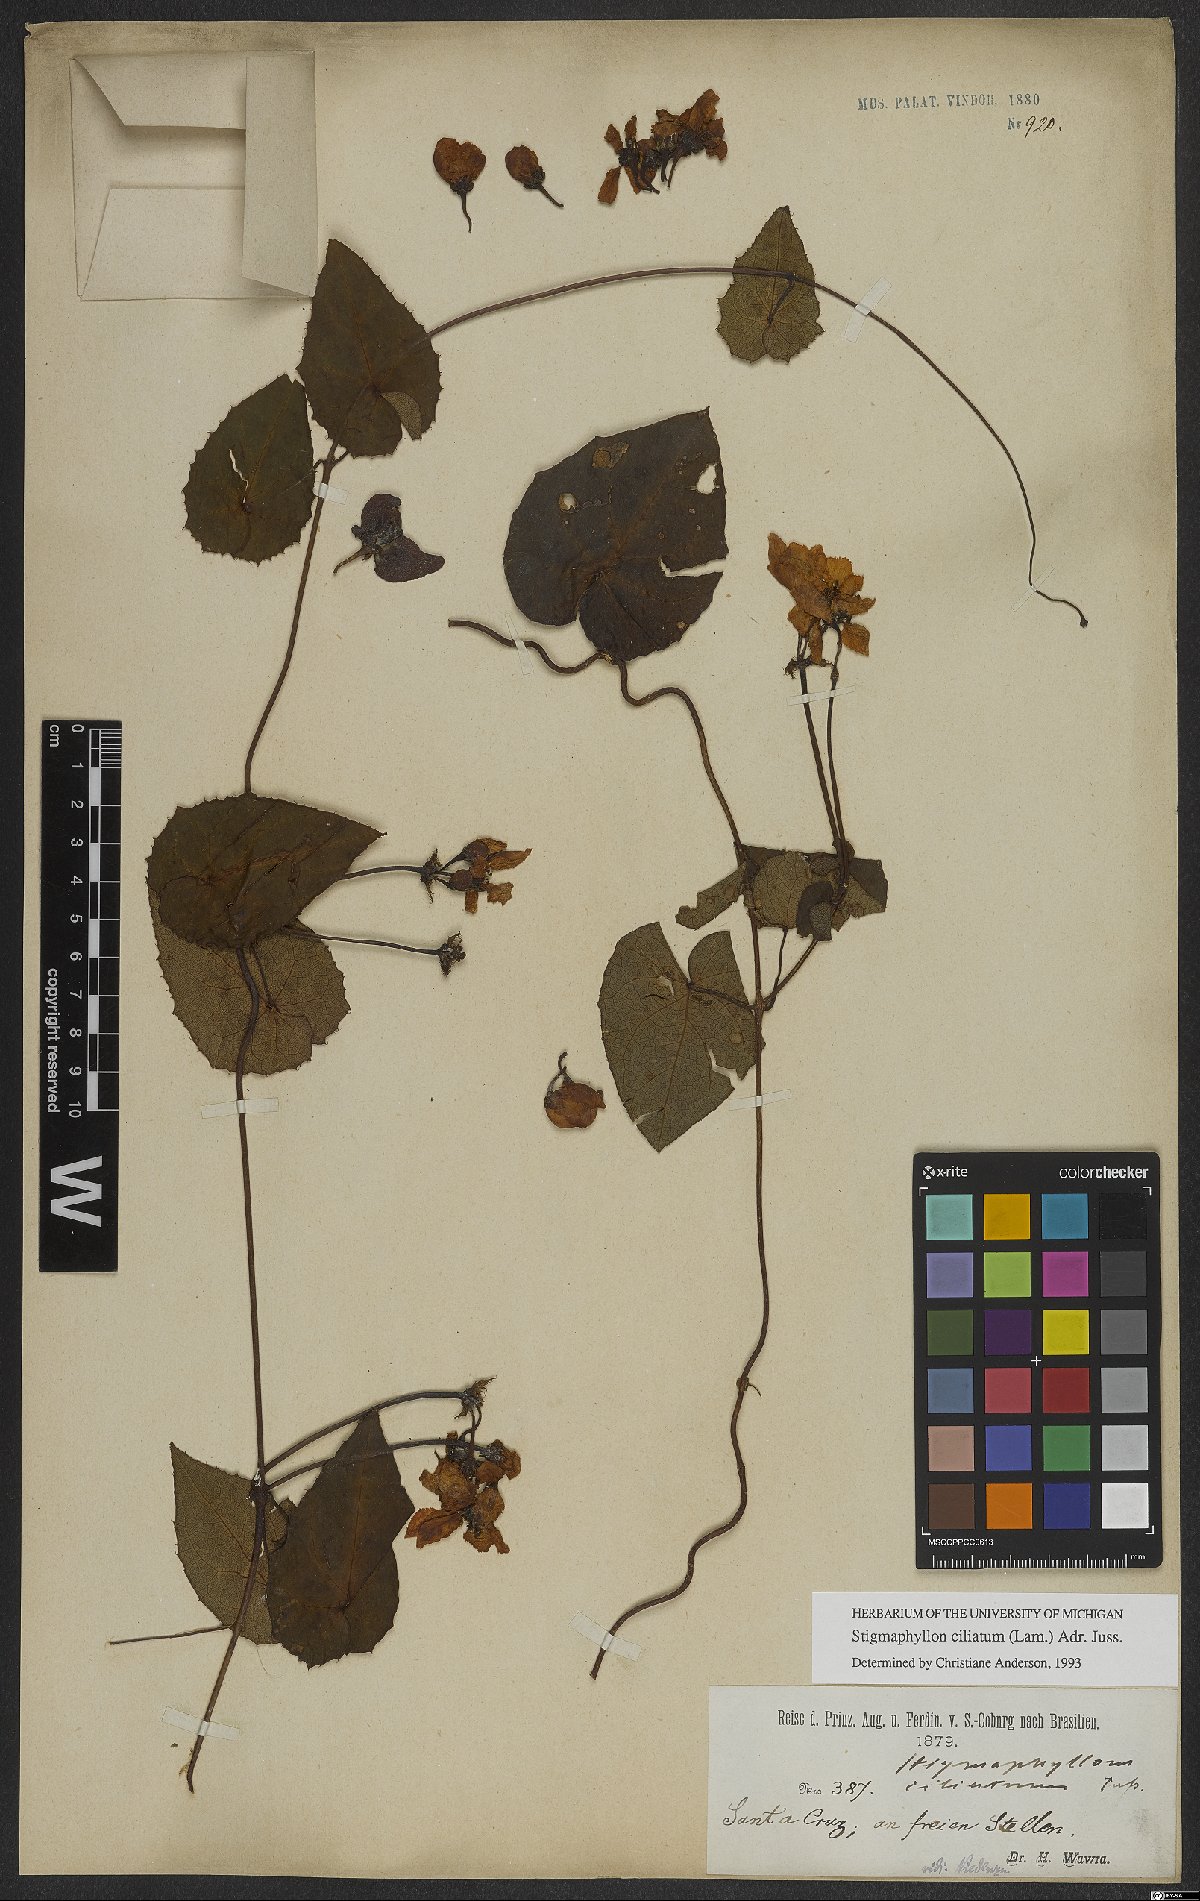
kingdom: Plantae
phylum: Tracheophyta
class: Magnoliopsida
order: Malpighiales
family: Malpighiaceae
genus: Stigmaphyllon
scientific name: Stigmaphyllon ciliatum
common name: Amazonvine
